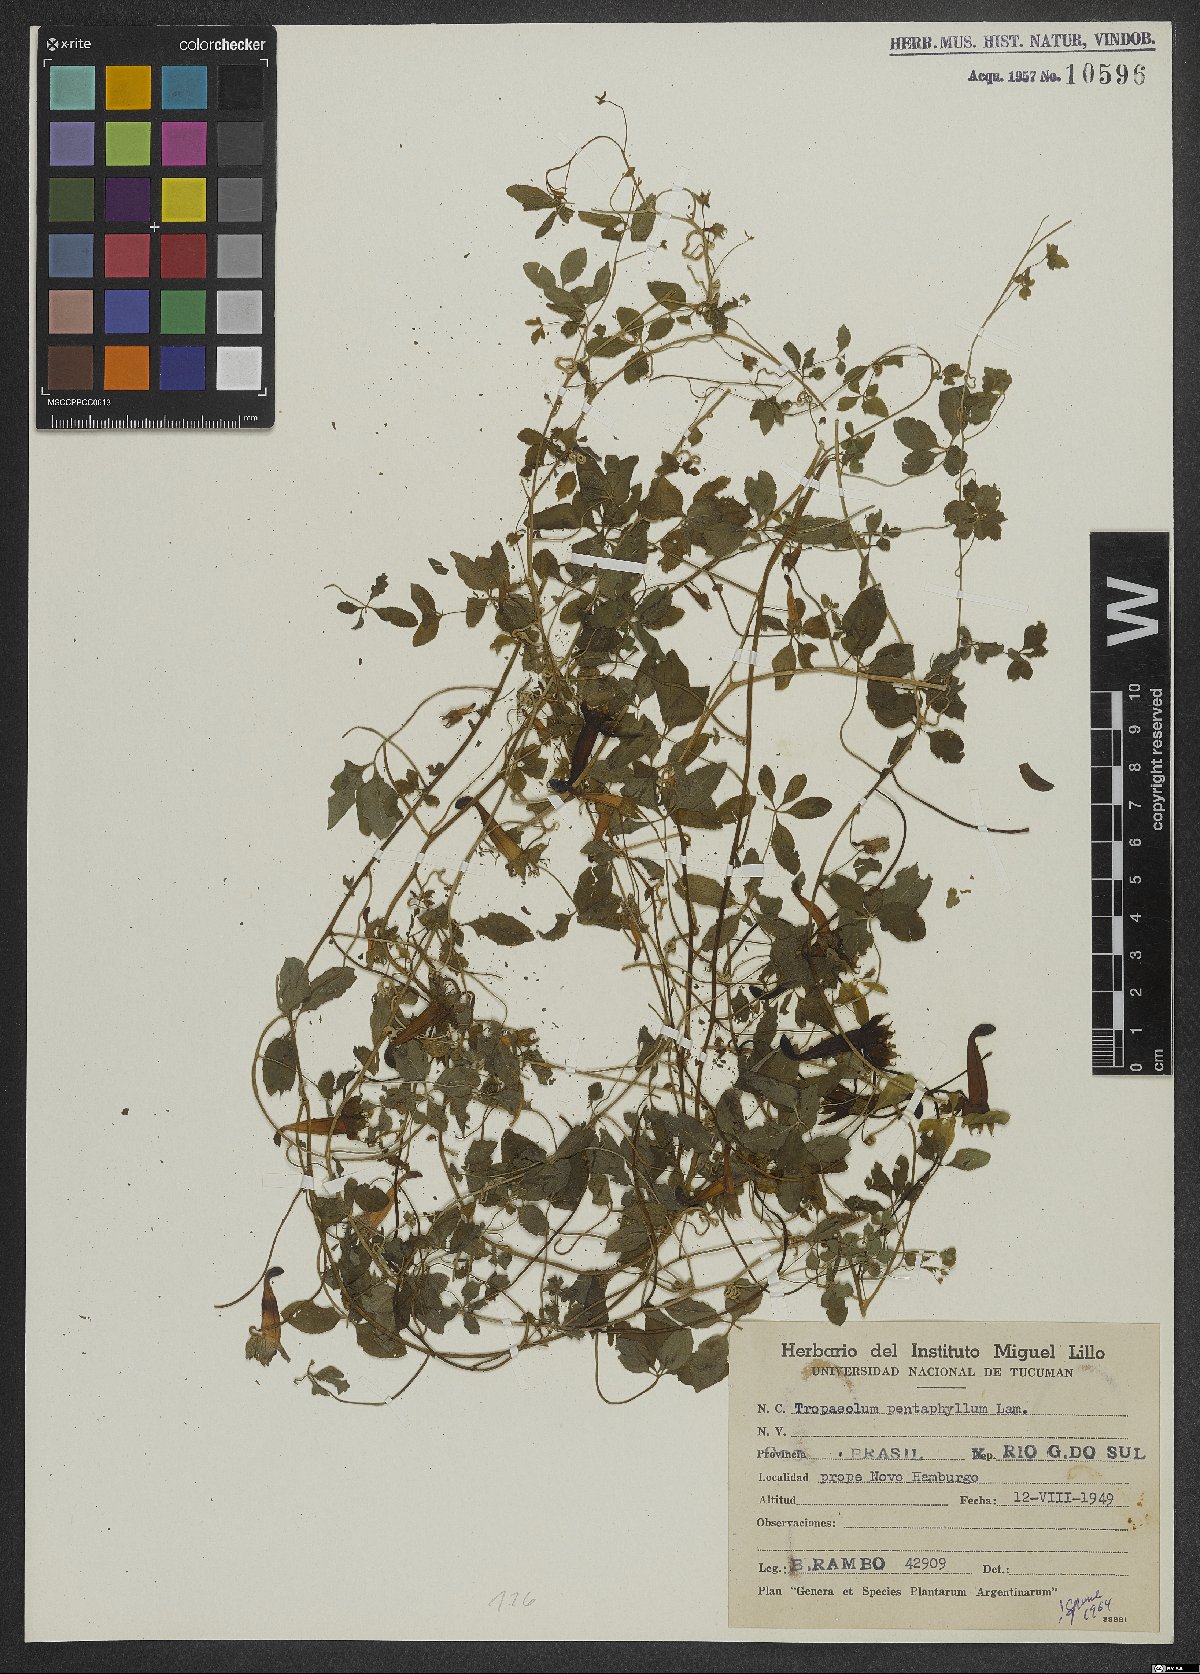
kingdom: Plantae
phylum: Tracheophyta
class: Magnoliopsida
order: Brassicales
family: Tropaeolaceae
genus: Tropaeolum
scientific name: Tropaeolum pentaphyllum
